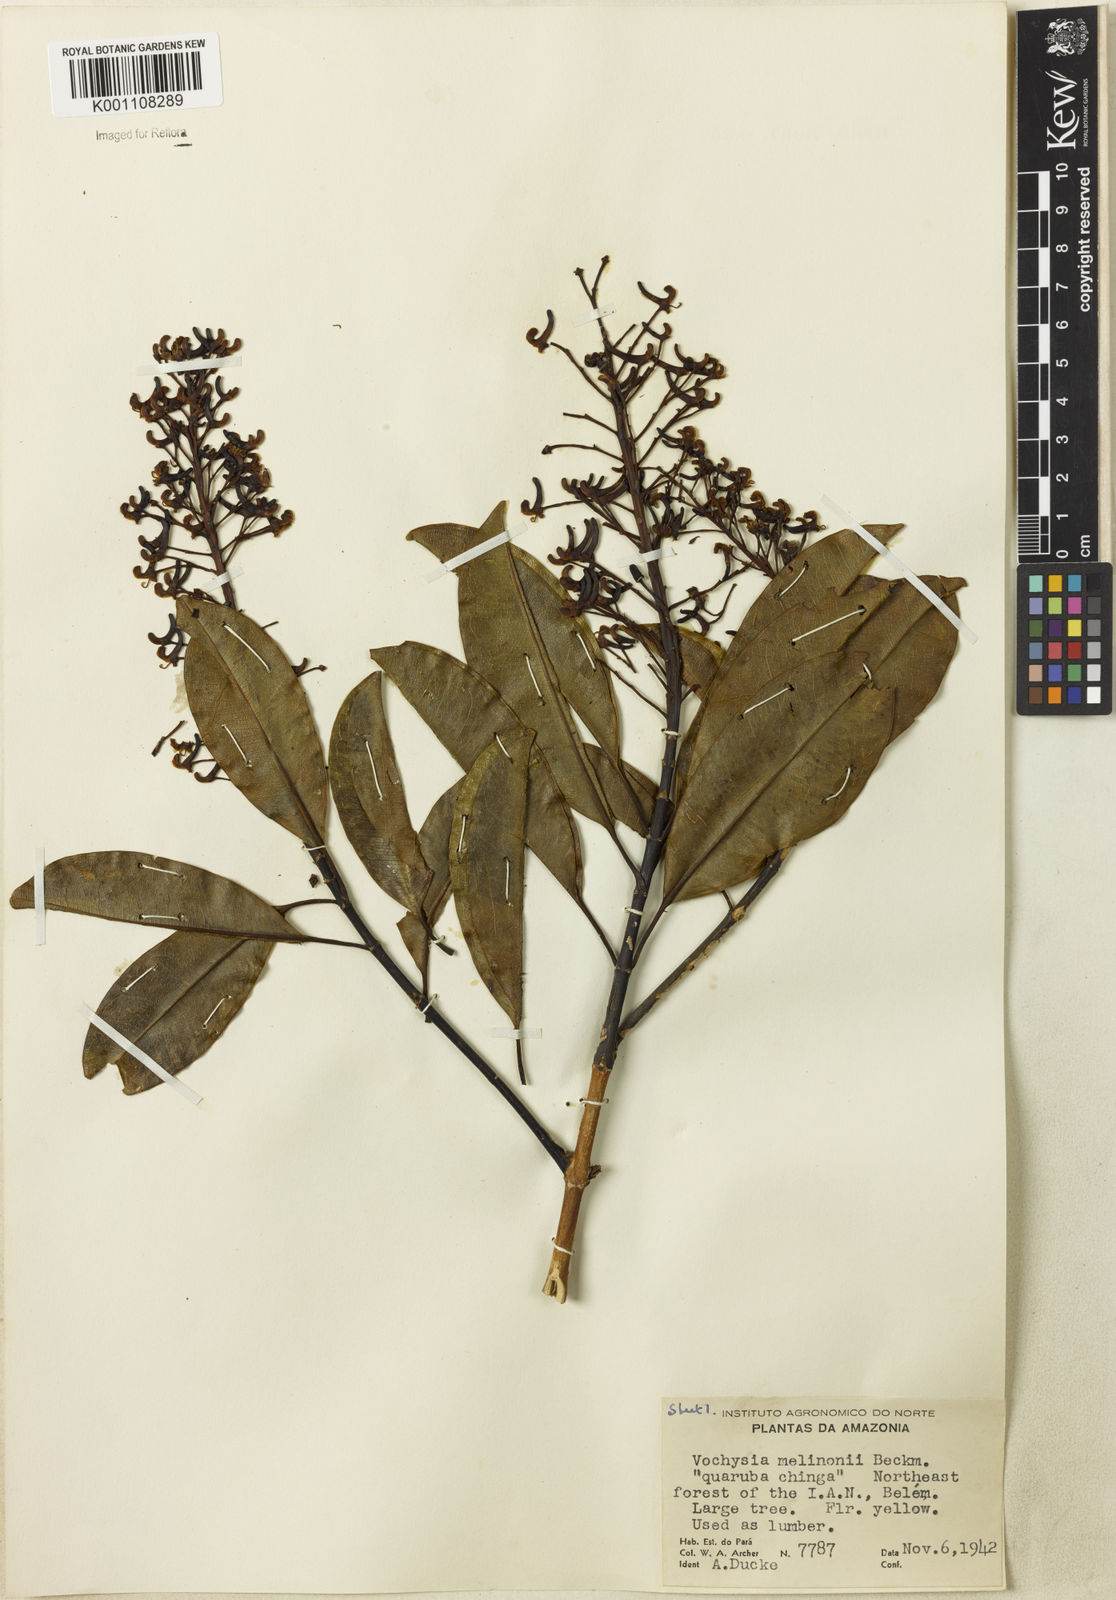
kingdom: Plantae
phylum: Tracheophyta
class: Magnoliopsida
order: Myrtales
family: Vochysiaceae
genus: Vochysia
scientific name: Vochysia
